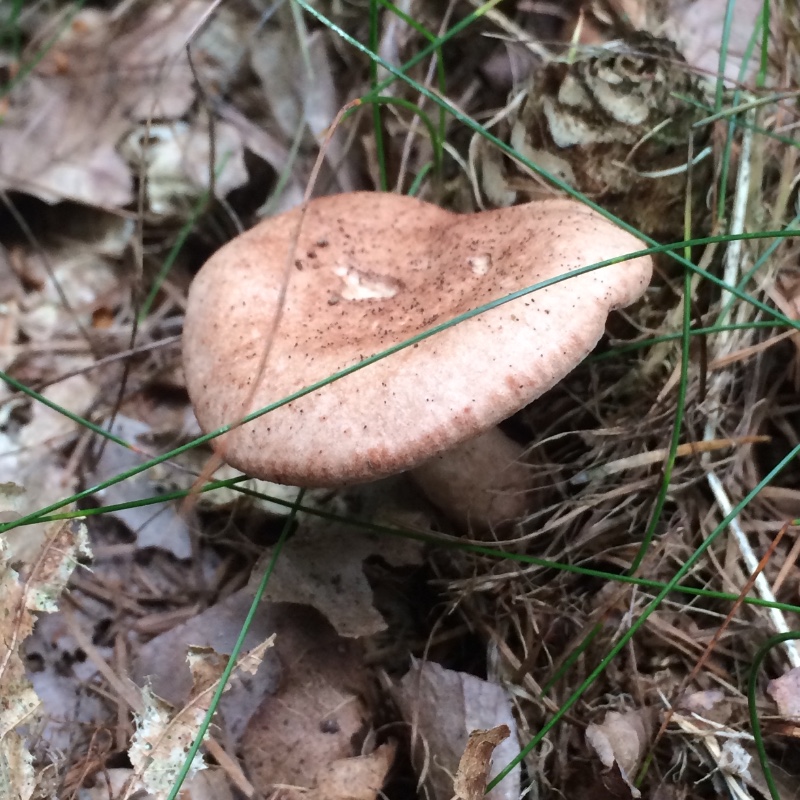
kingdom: Fungi
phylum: Basidiomycota
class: Agaricomycetes
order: Russulales
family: Russulaceae
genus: Lactarius
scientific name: Lactarius quietus
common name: ege-mælkehat
